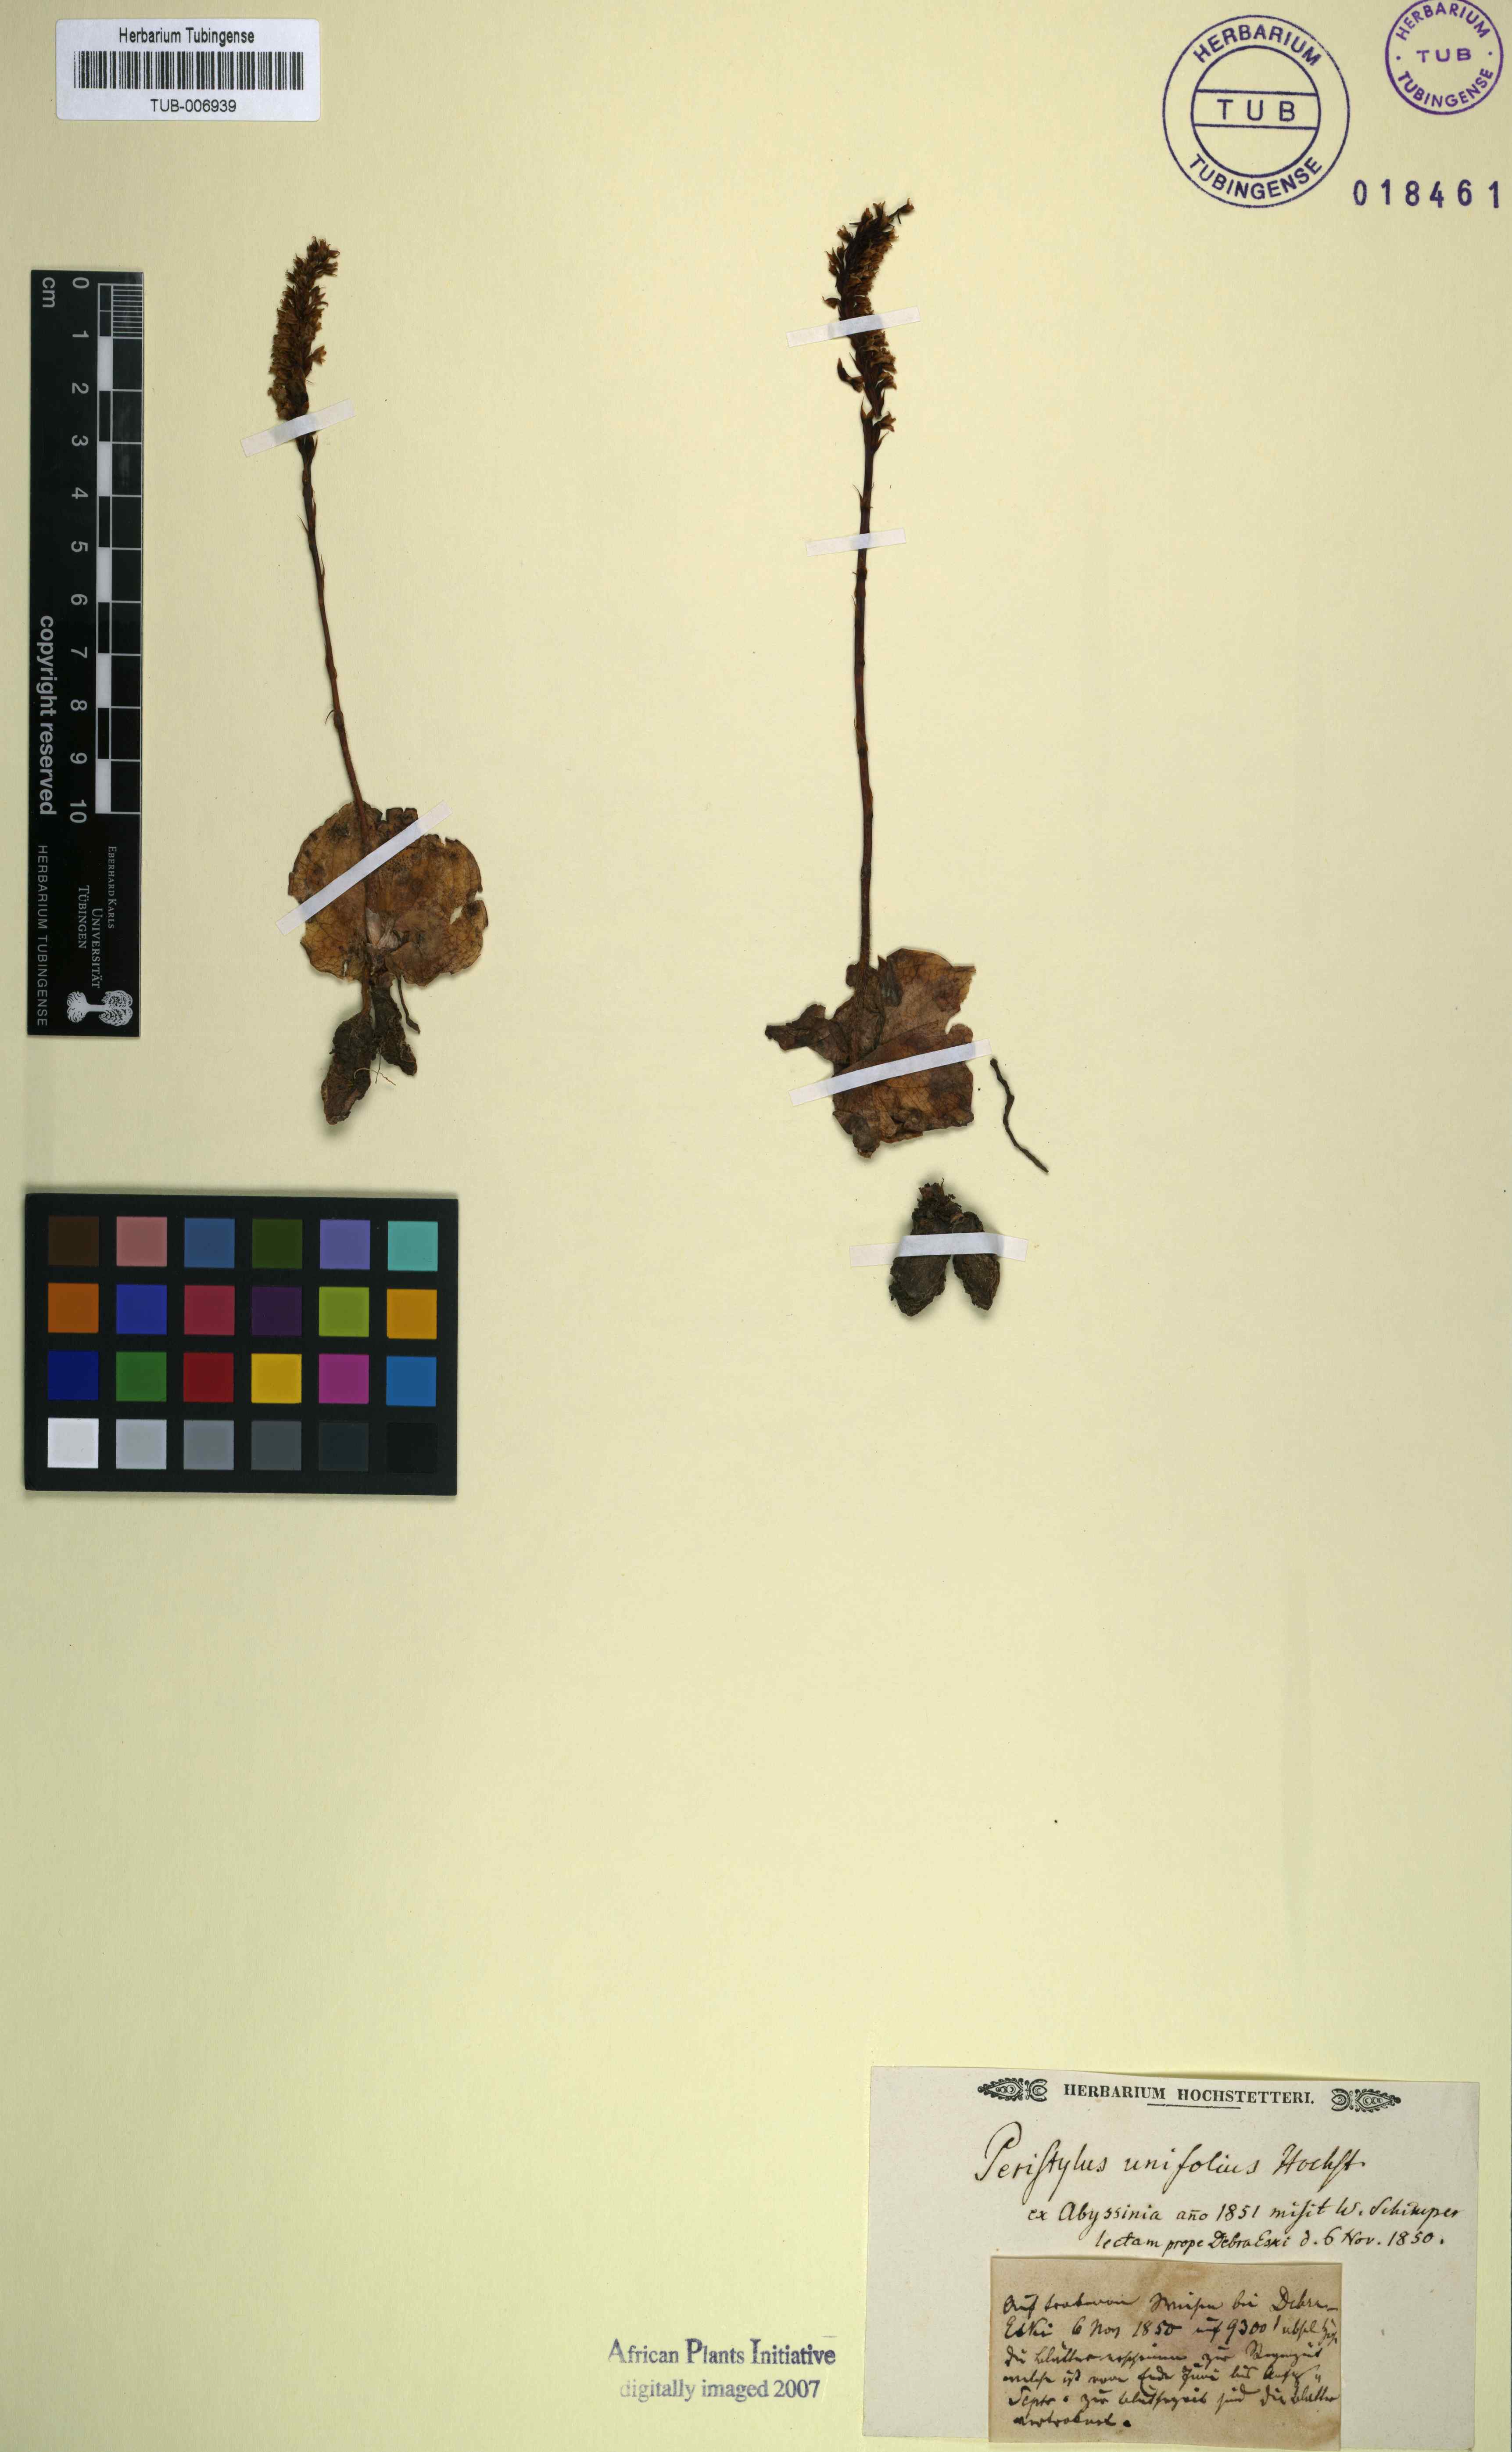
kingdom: Plantae
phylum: Tracheophyta
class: Liliopsida
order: Asparagales
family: Orchidaceae
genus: Holothrix
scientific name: Holothrix unifolia
